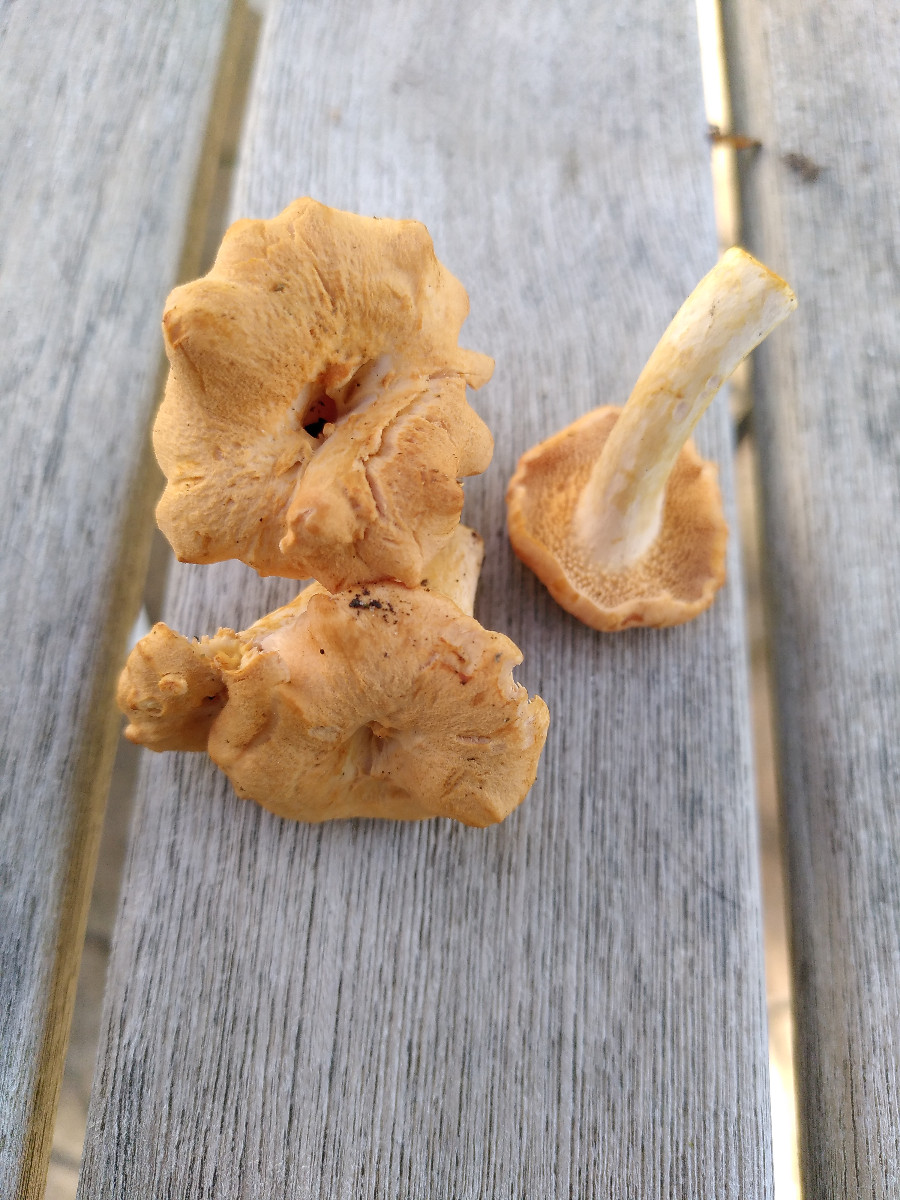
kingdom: Fungi
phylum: Basidiomycota
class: Agaricomycetes
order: Cantharellales
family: Hydnaceae
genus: Hydnum
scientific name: Hydnum umbilicatum
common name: navle-pigsvamp
